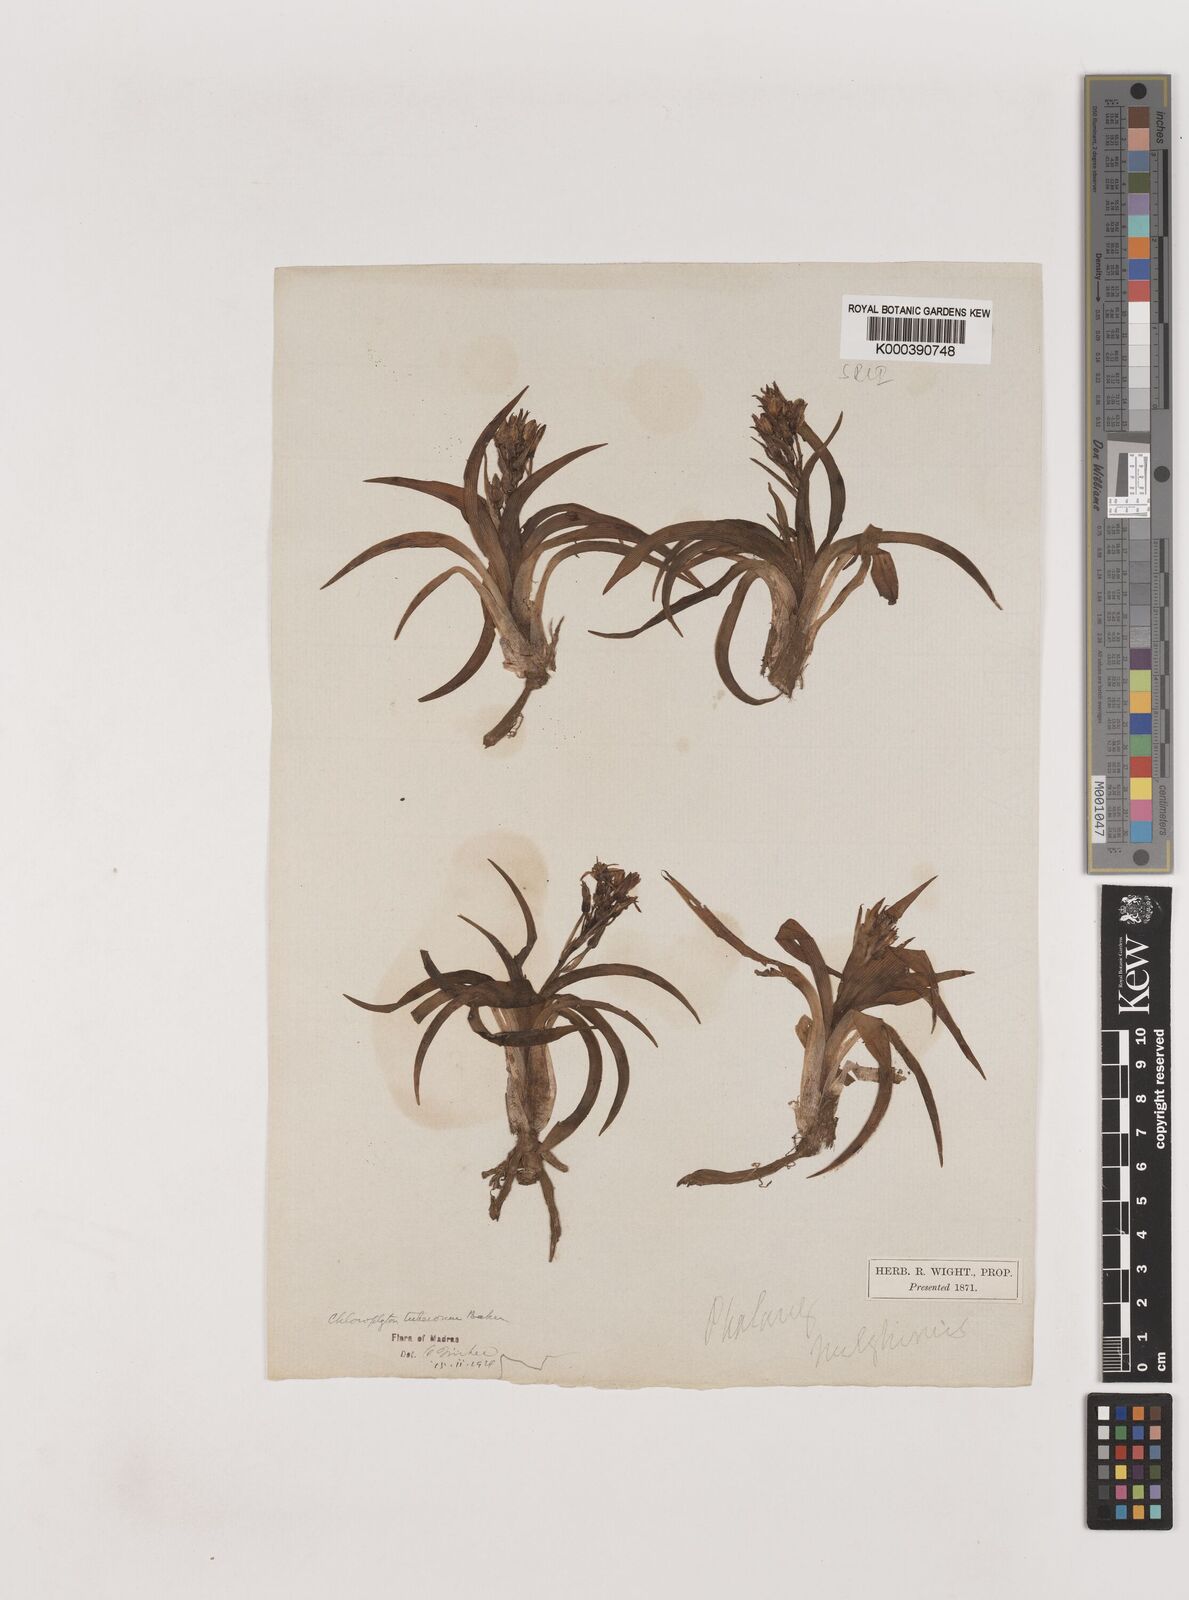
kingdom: Plantae
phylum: Tracheophyta
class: Liliopsida
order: Asparagales
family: Asparagaceae
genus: Chlorophytum
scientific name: Chlorophytum tuberosum
